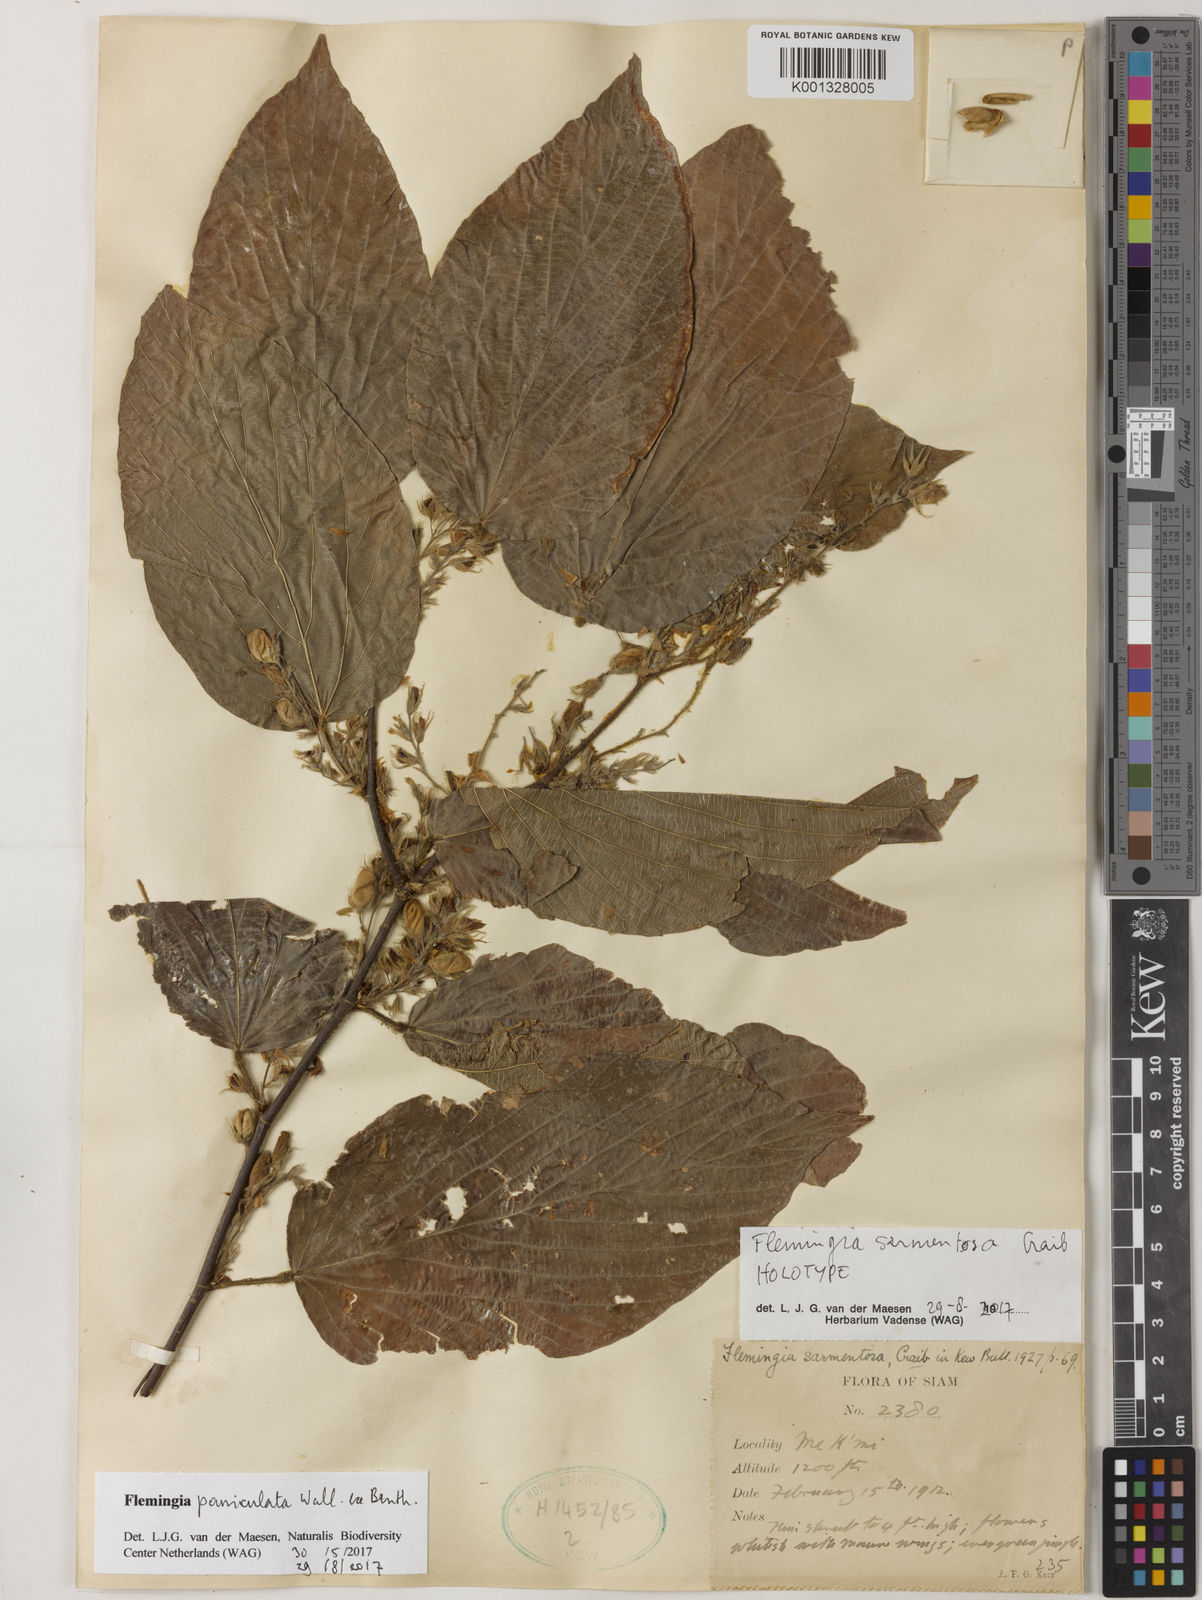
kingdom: Plantae
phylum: Tracheophyta
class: Magnoliopsida
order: Fabales
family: Fabaceae
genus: Flemingia
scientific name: Flemingia paniculata
